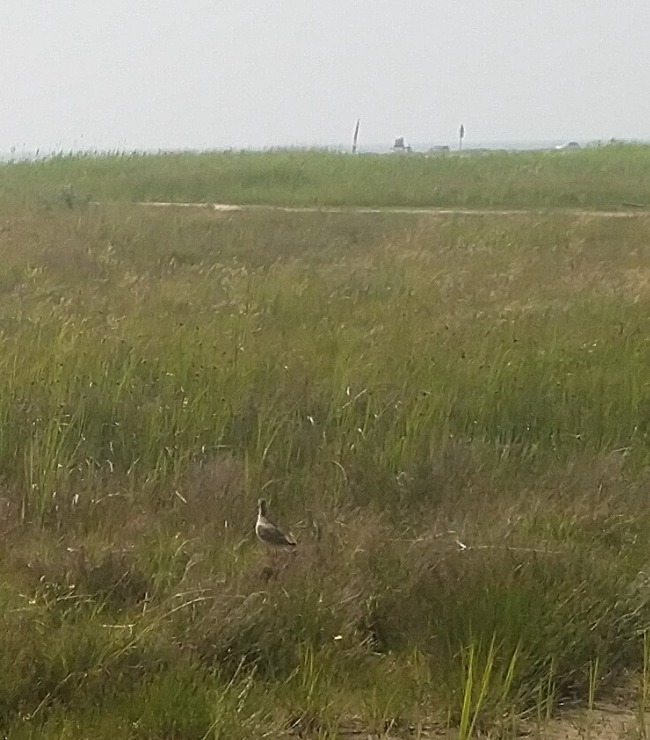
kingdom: Animalia
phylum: Chordata
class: Aves
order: Charadriiformes
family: Scolopacidae
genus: Tringa
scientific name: Tringa totanus
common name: Rødben
